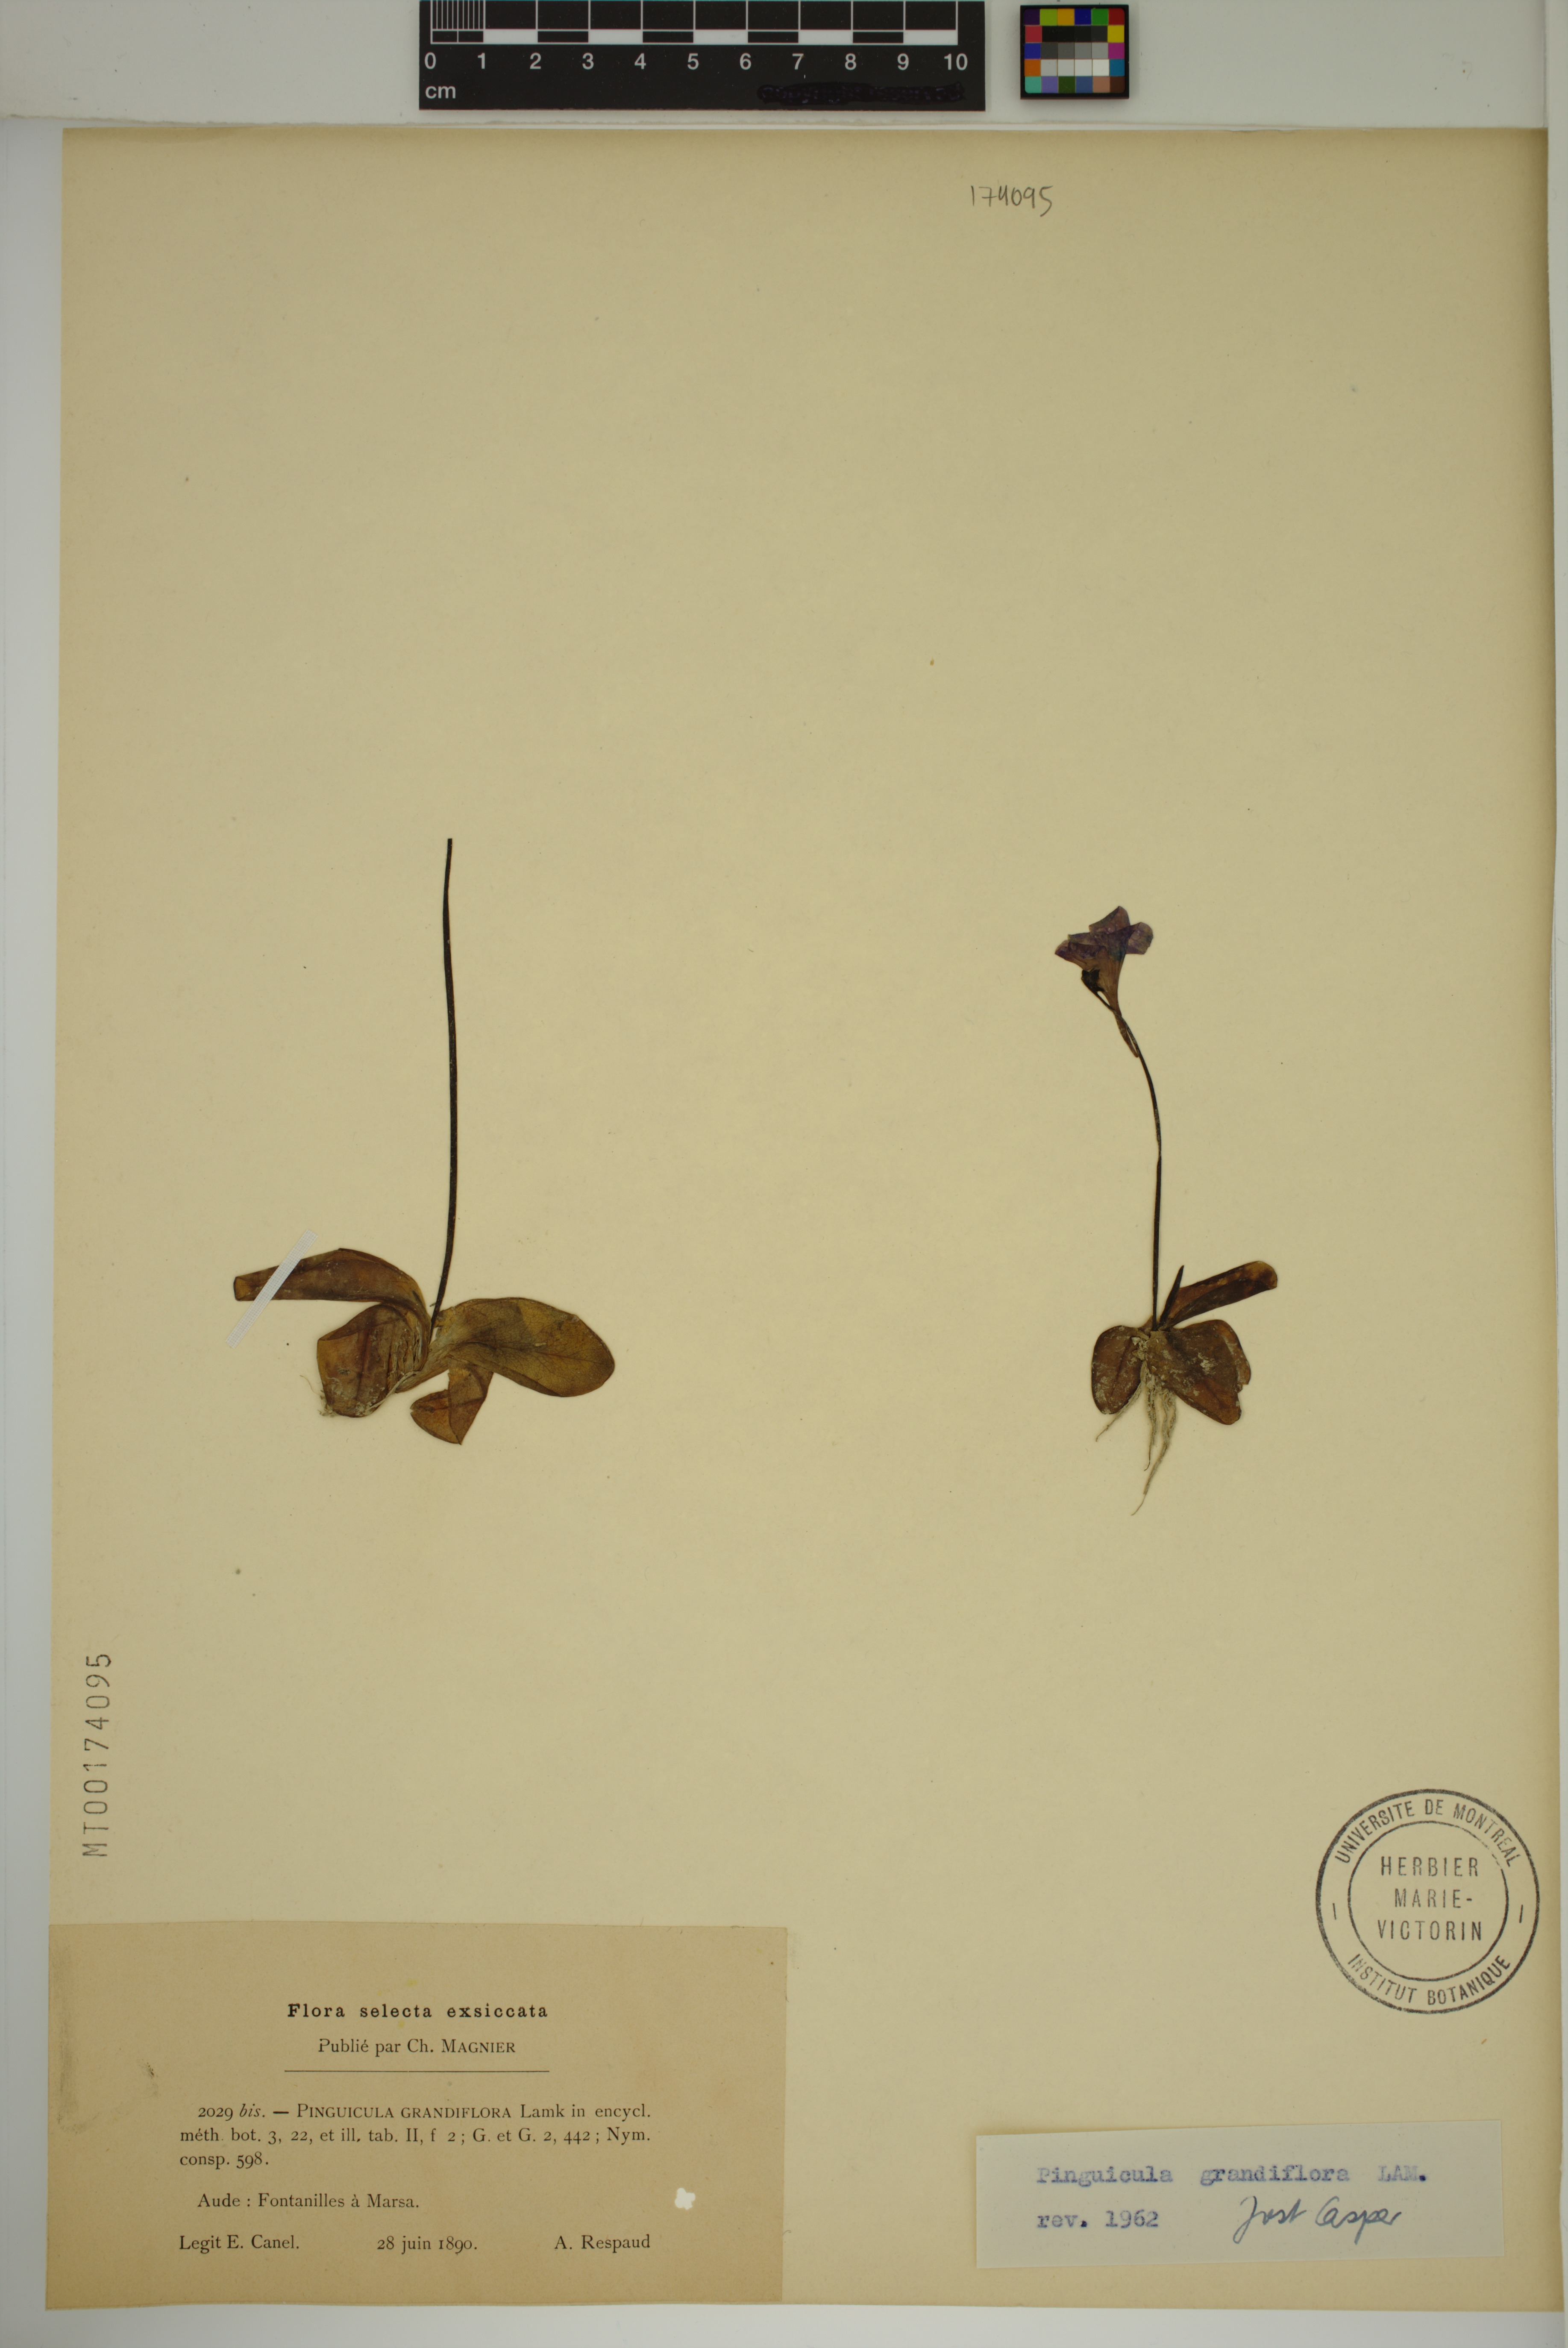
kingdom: Plantae
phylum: Tracheophyta
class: Magnoliopsida
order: Lamiales
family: Lentibulariaceae
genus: Pinguicula
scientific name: Pinguicula grandiflora
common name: Large-flowered butterwort
